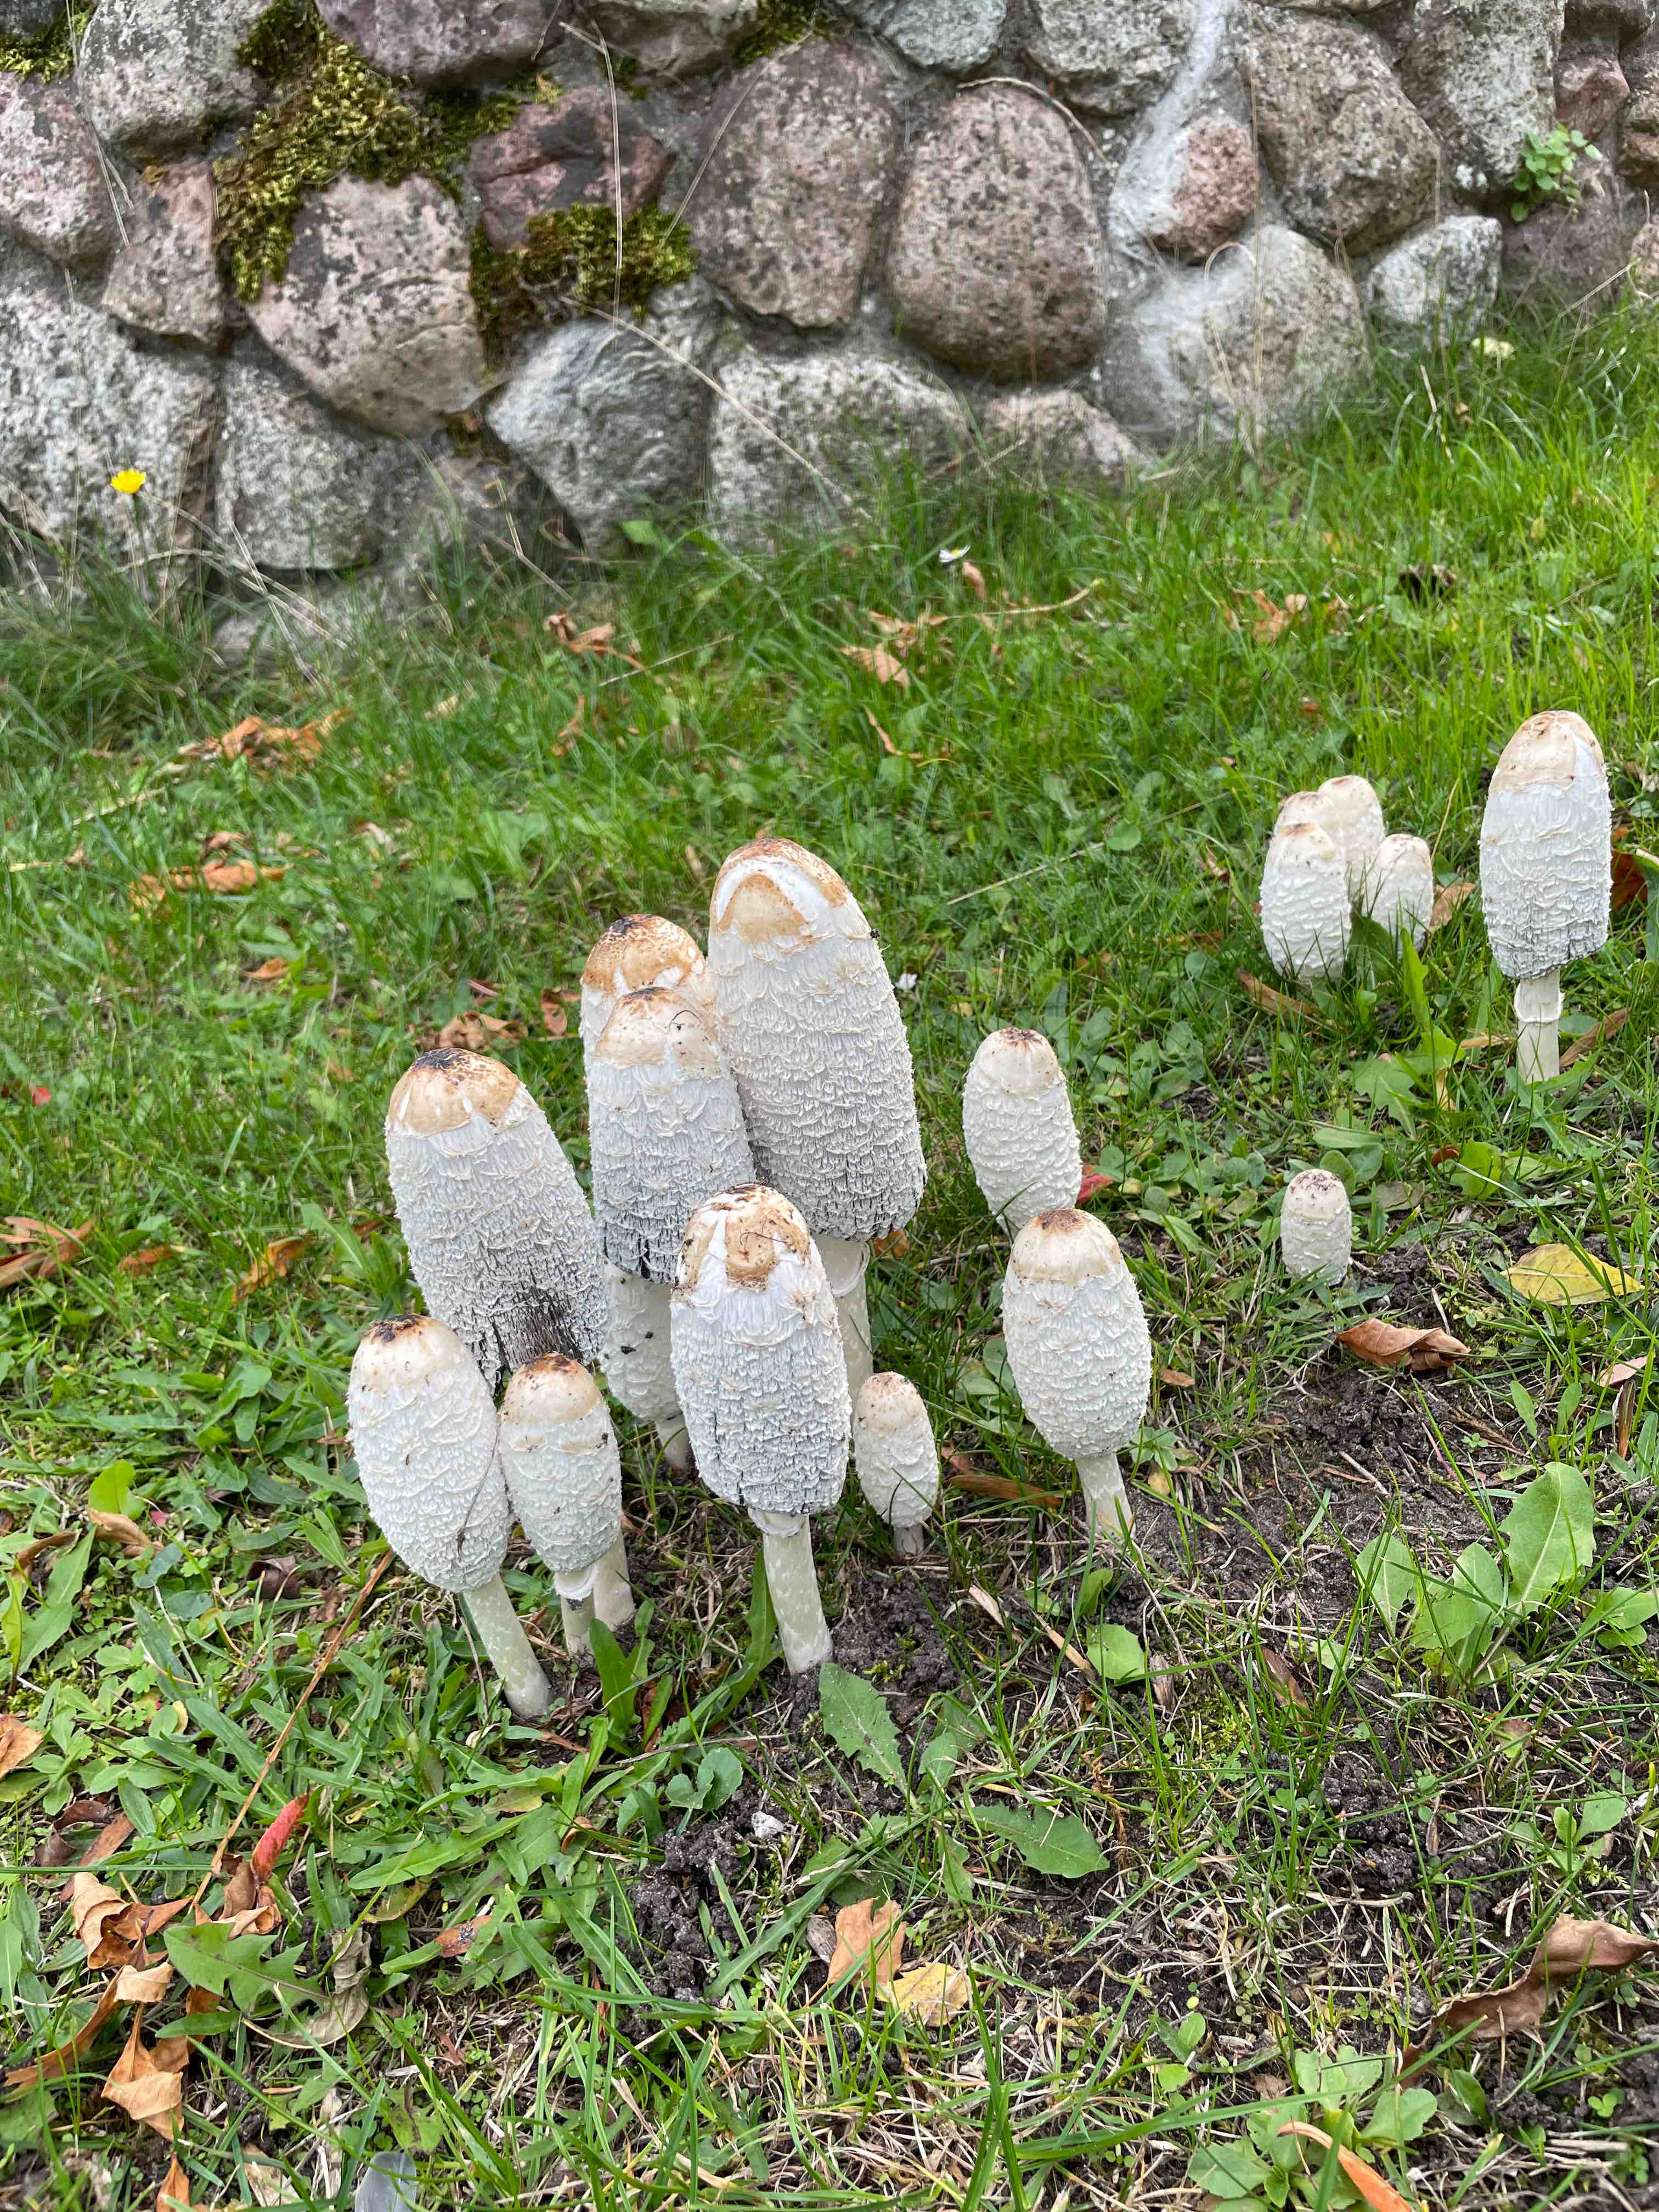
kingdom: Fungi
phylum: Basidiomycota
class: Agaricomycetes
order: Agaricales
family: Agaricaceae
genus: Coprinus
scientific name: Coprinus comatus
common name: stor parykhat
